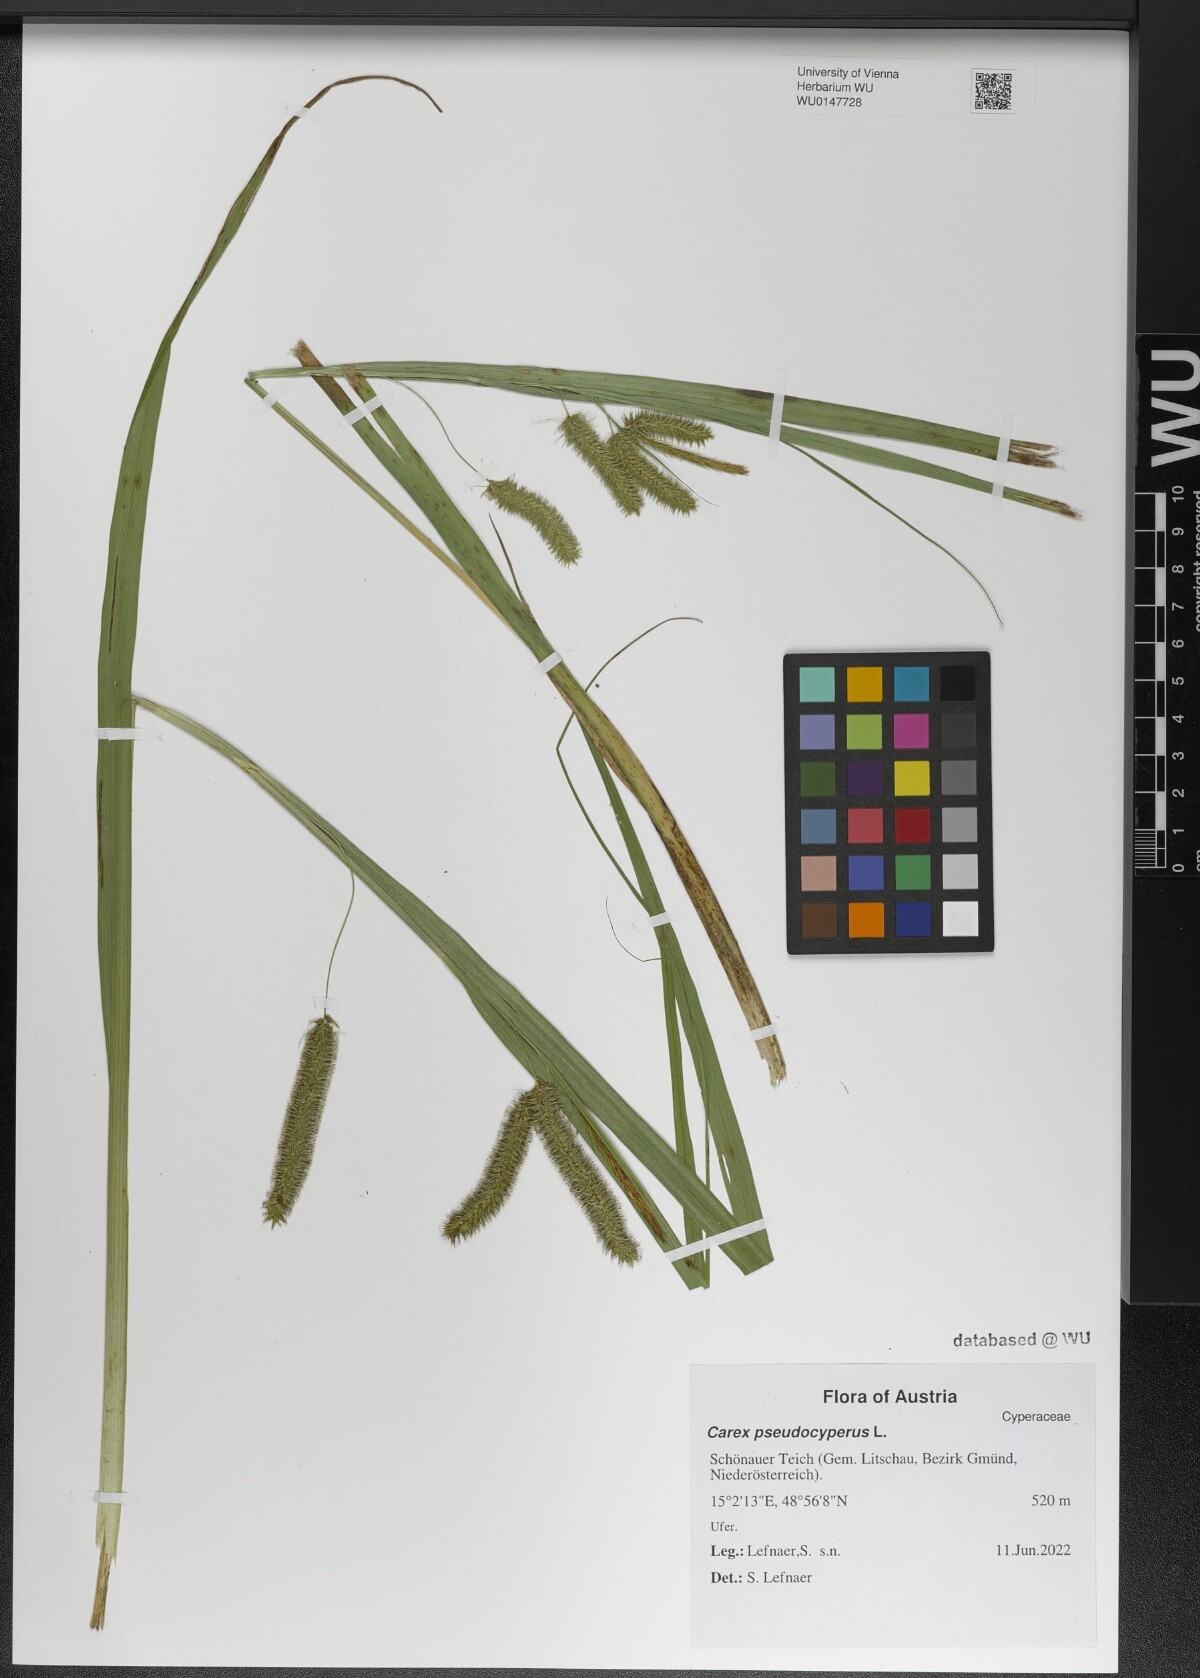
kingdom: Plantae
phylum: Tracheophyta
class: Liliopsida
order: Poales
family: Cyperaceae
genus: Carex
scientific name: Carex pseudocyperus
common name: Cyperus sedge
